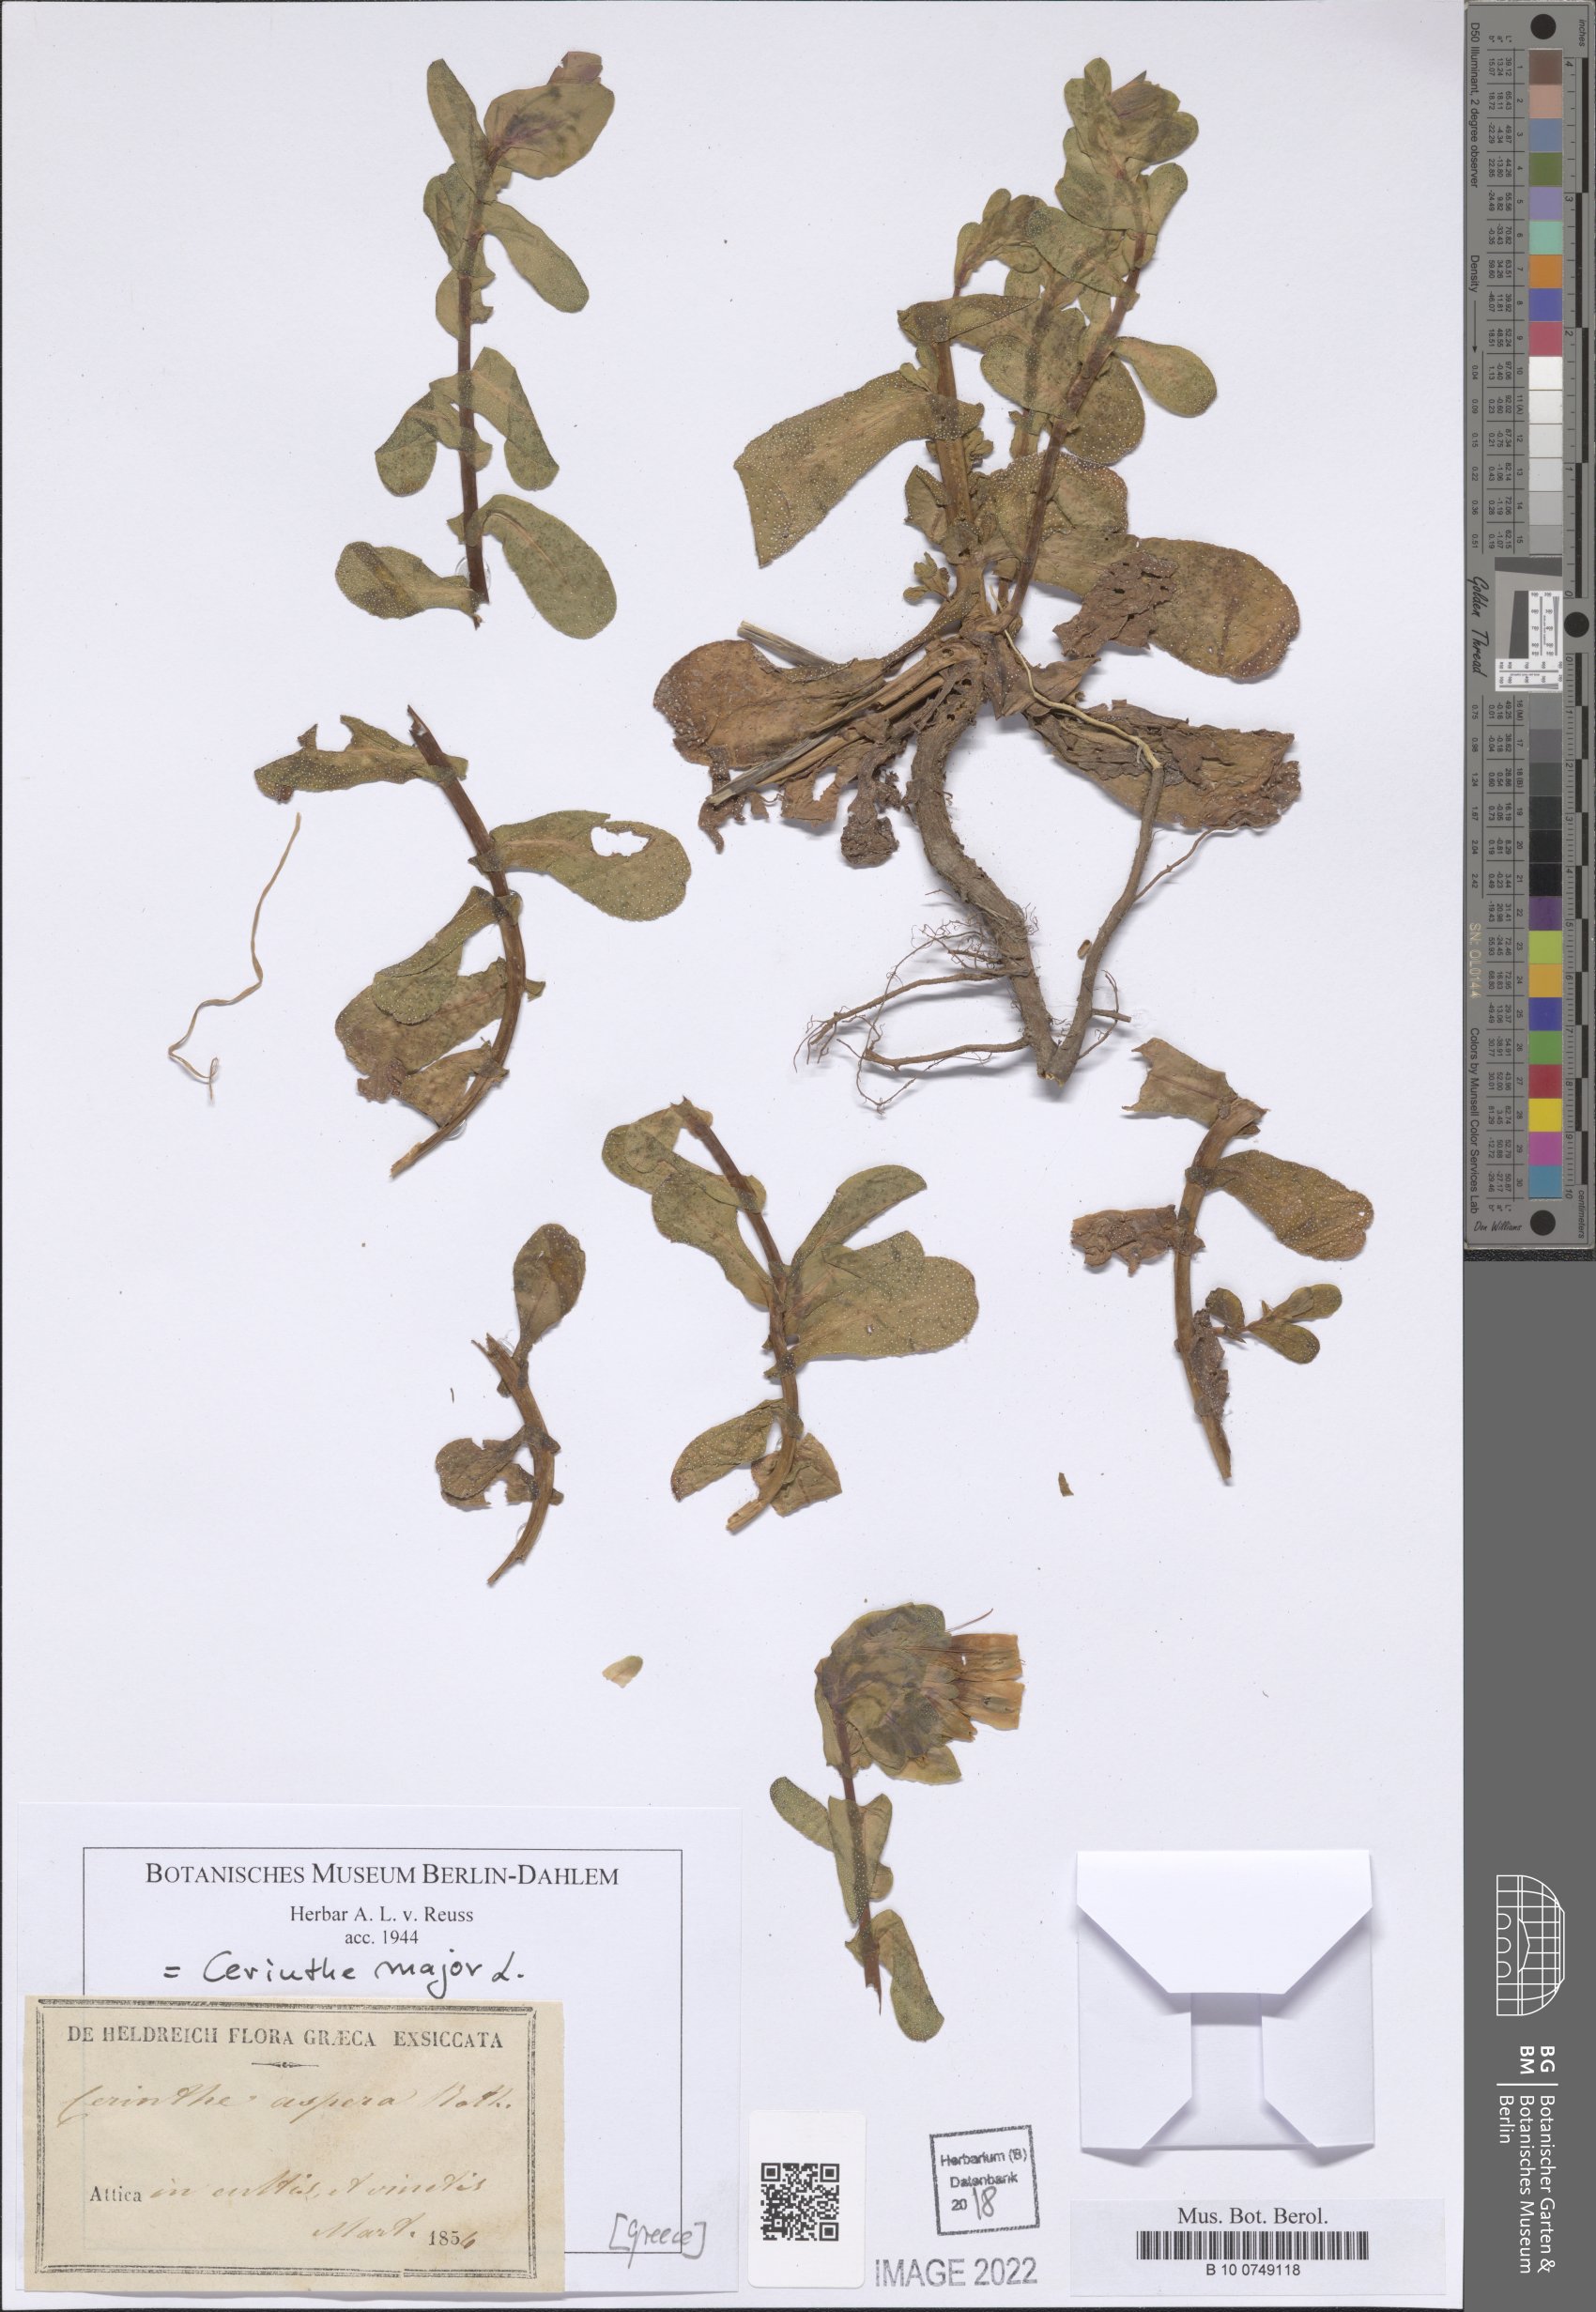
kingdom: Plantae
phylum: Tracheophyta
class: Magnoliopsida
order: Boraginales
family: Boraginaceae
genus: Cerinthe
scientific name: Cerinthe major
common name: Greater honeywort
